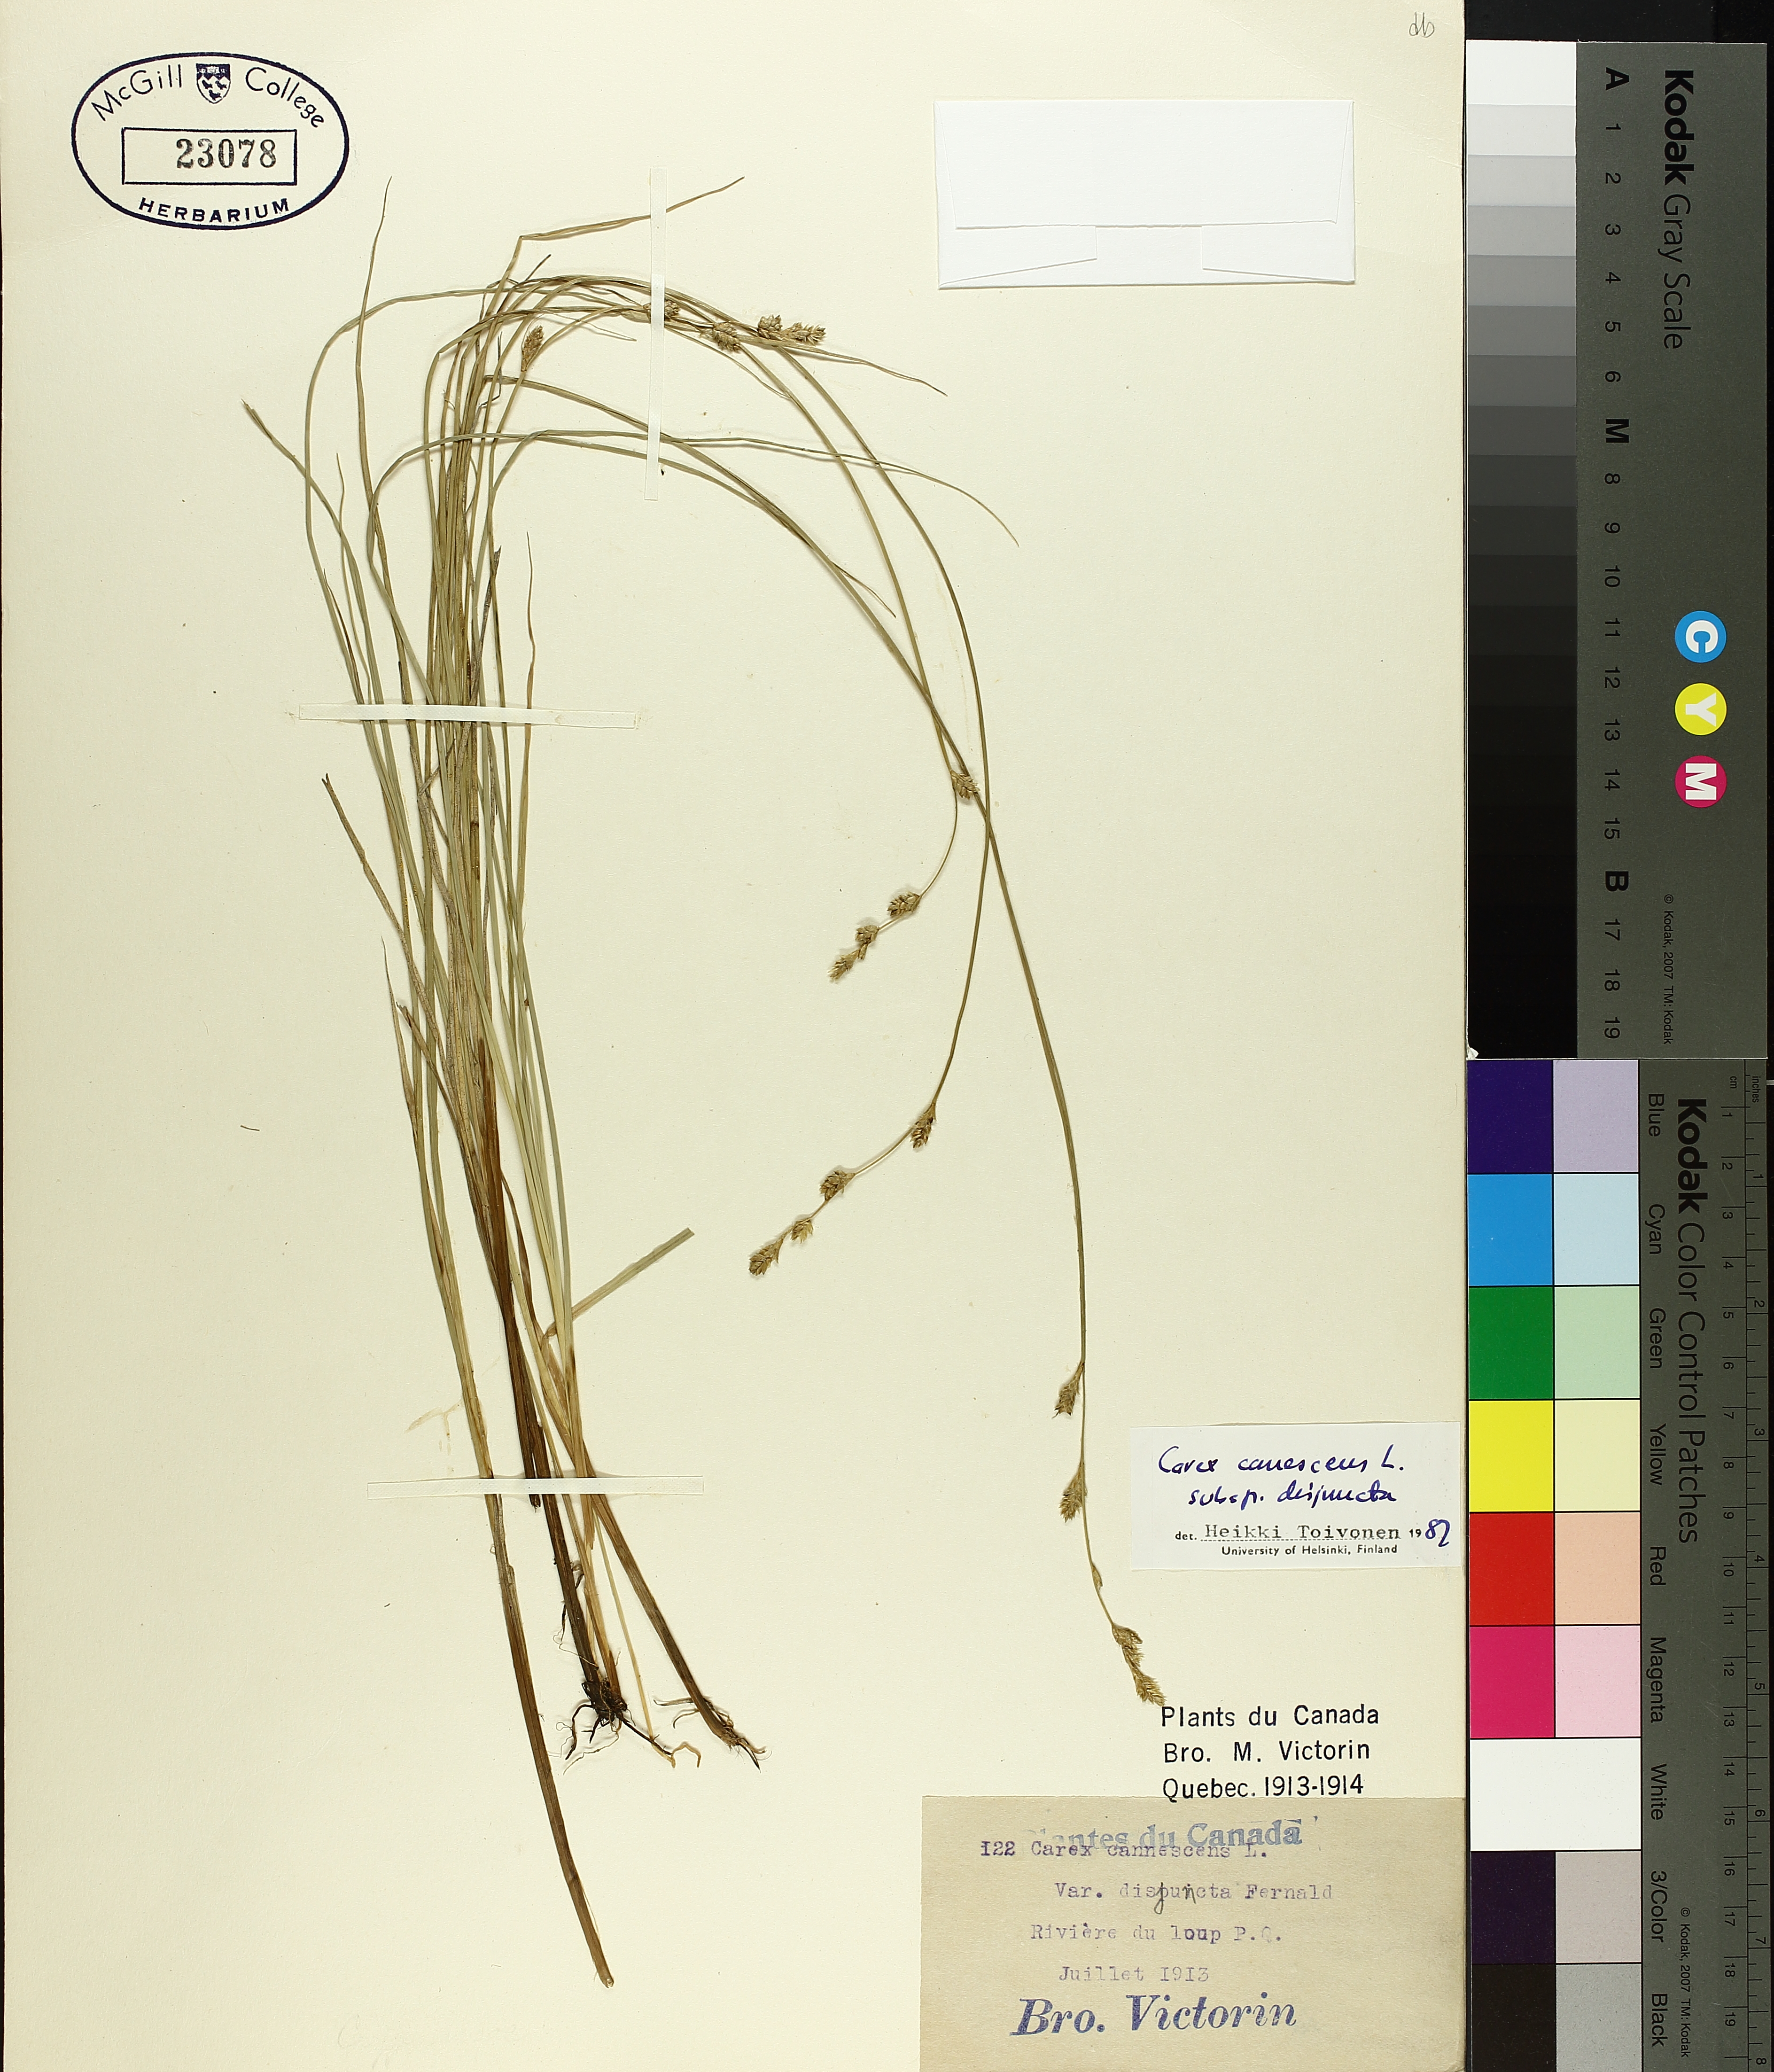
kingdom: Plantae
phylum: Tracheophyta
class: Liliopsida
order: Poales
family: Cyperaceae
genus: Carex
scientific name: Carex canescens
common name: White sedge
